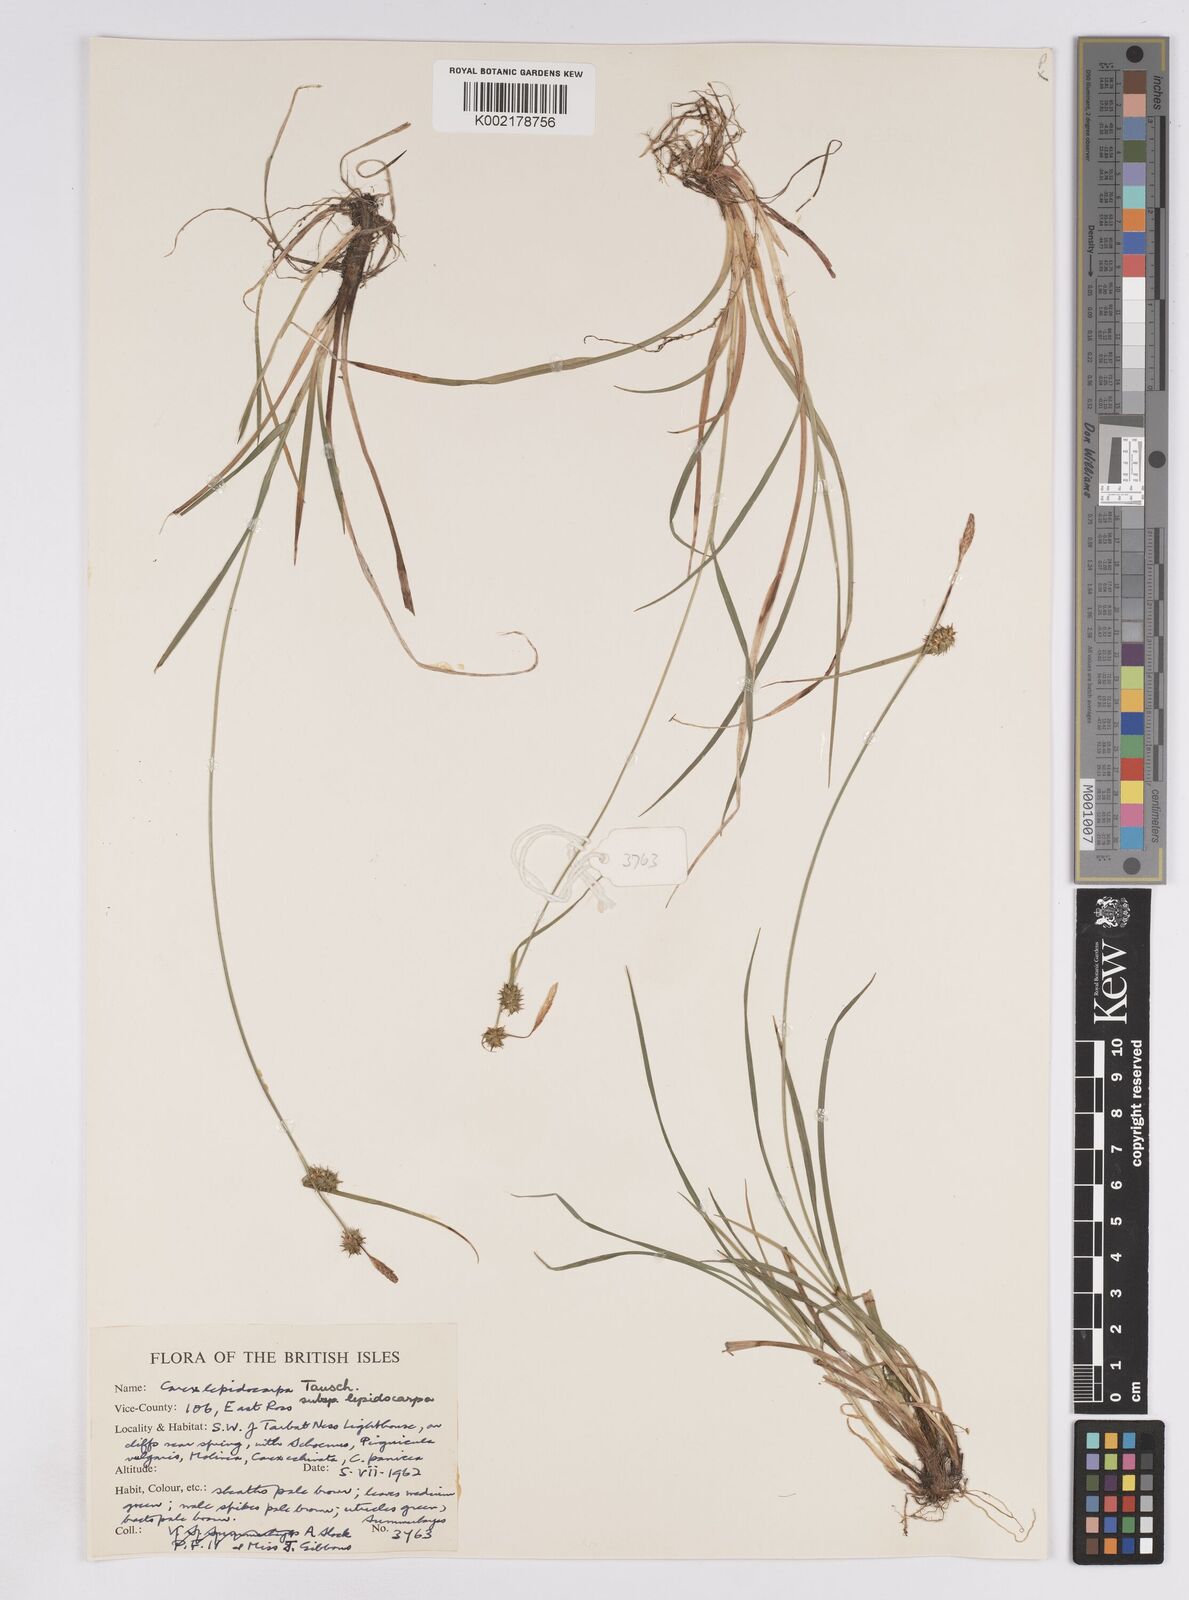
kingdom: Plantae
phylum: Tracheophyta
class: Liliopsida
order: Poales
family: Cyperaceae
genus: Carex
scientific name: Carex lepidocarpa
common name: Long-stalked yellow-sedge
